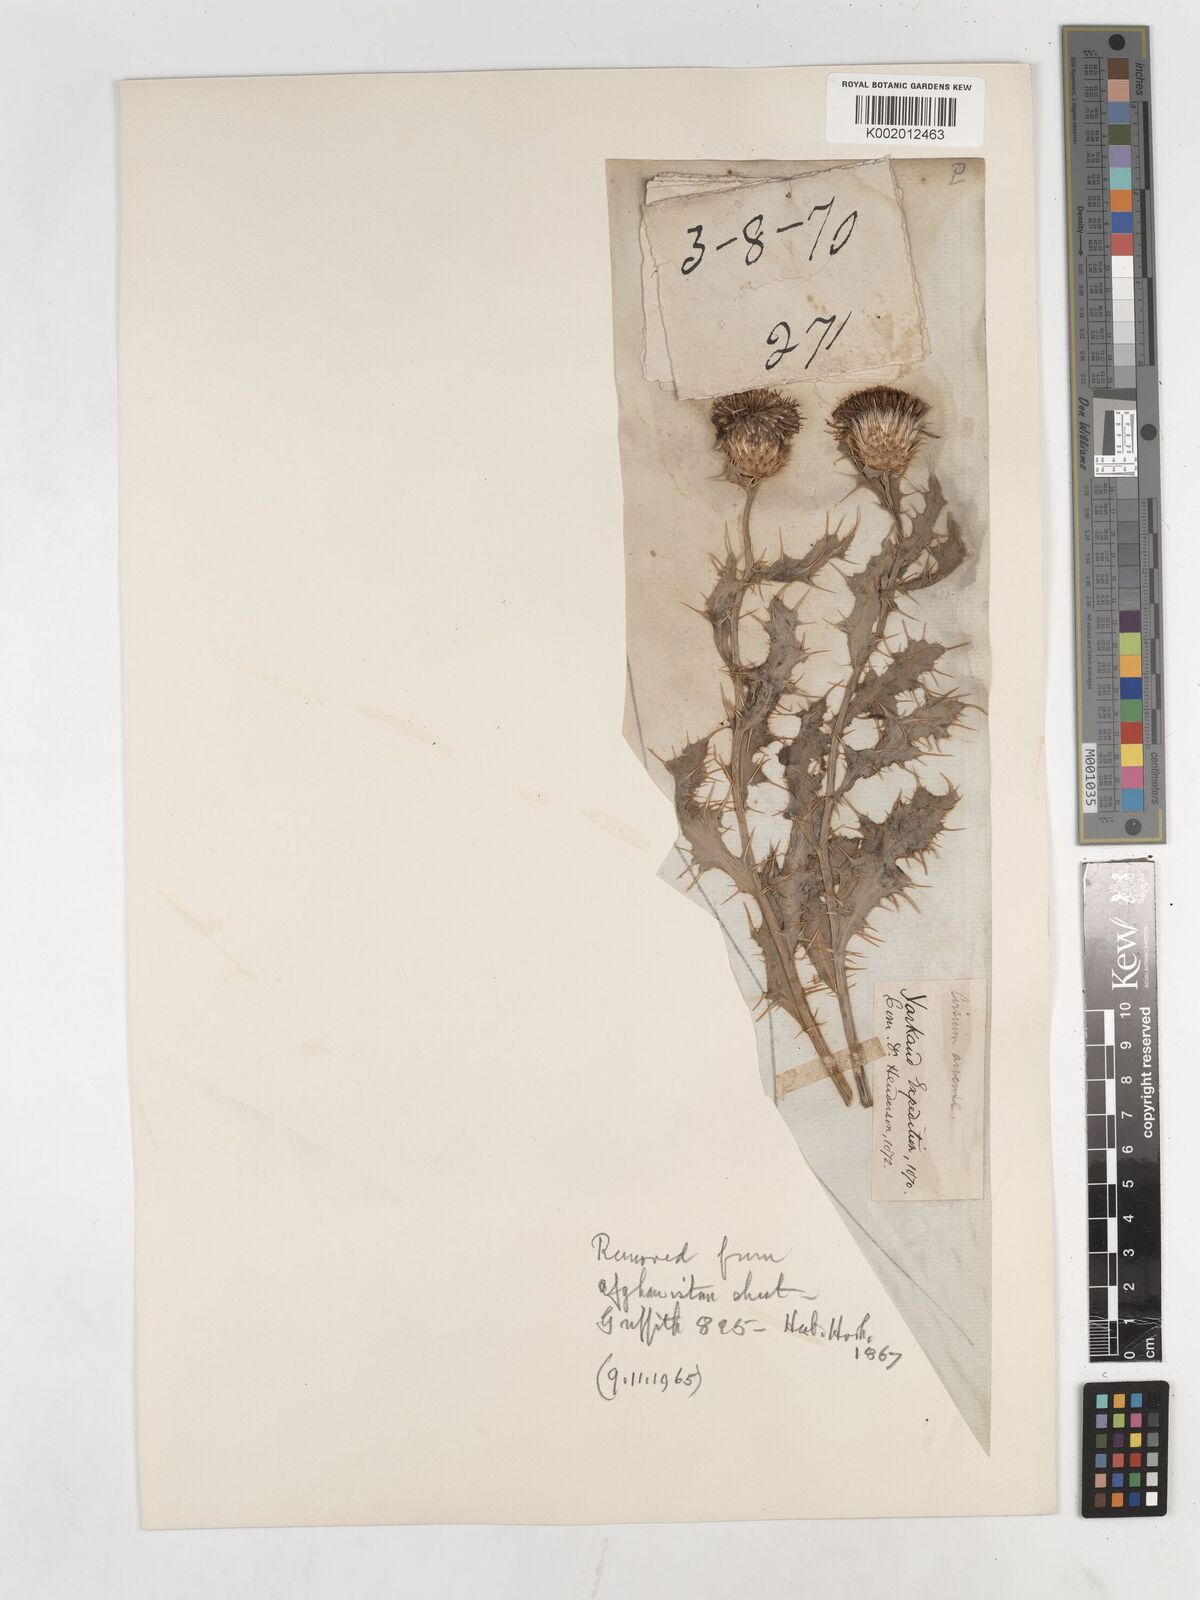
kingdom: Plantae
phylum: Tracheophyta
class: Magnoliopsida
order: Asterales
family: Asteraceae
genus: Cirsium
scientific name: Cirsium arvense
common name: Creeping thistle
